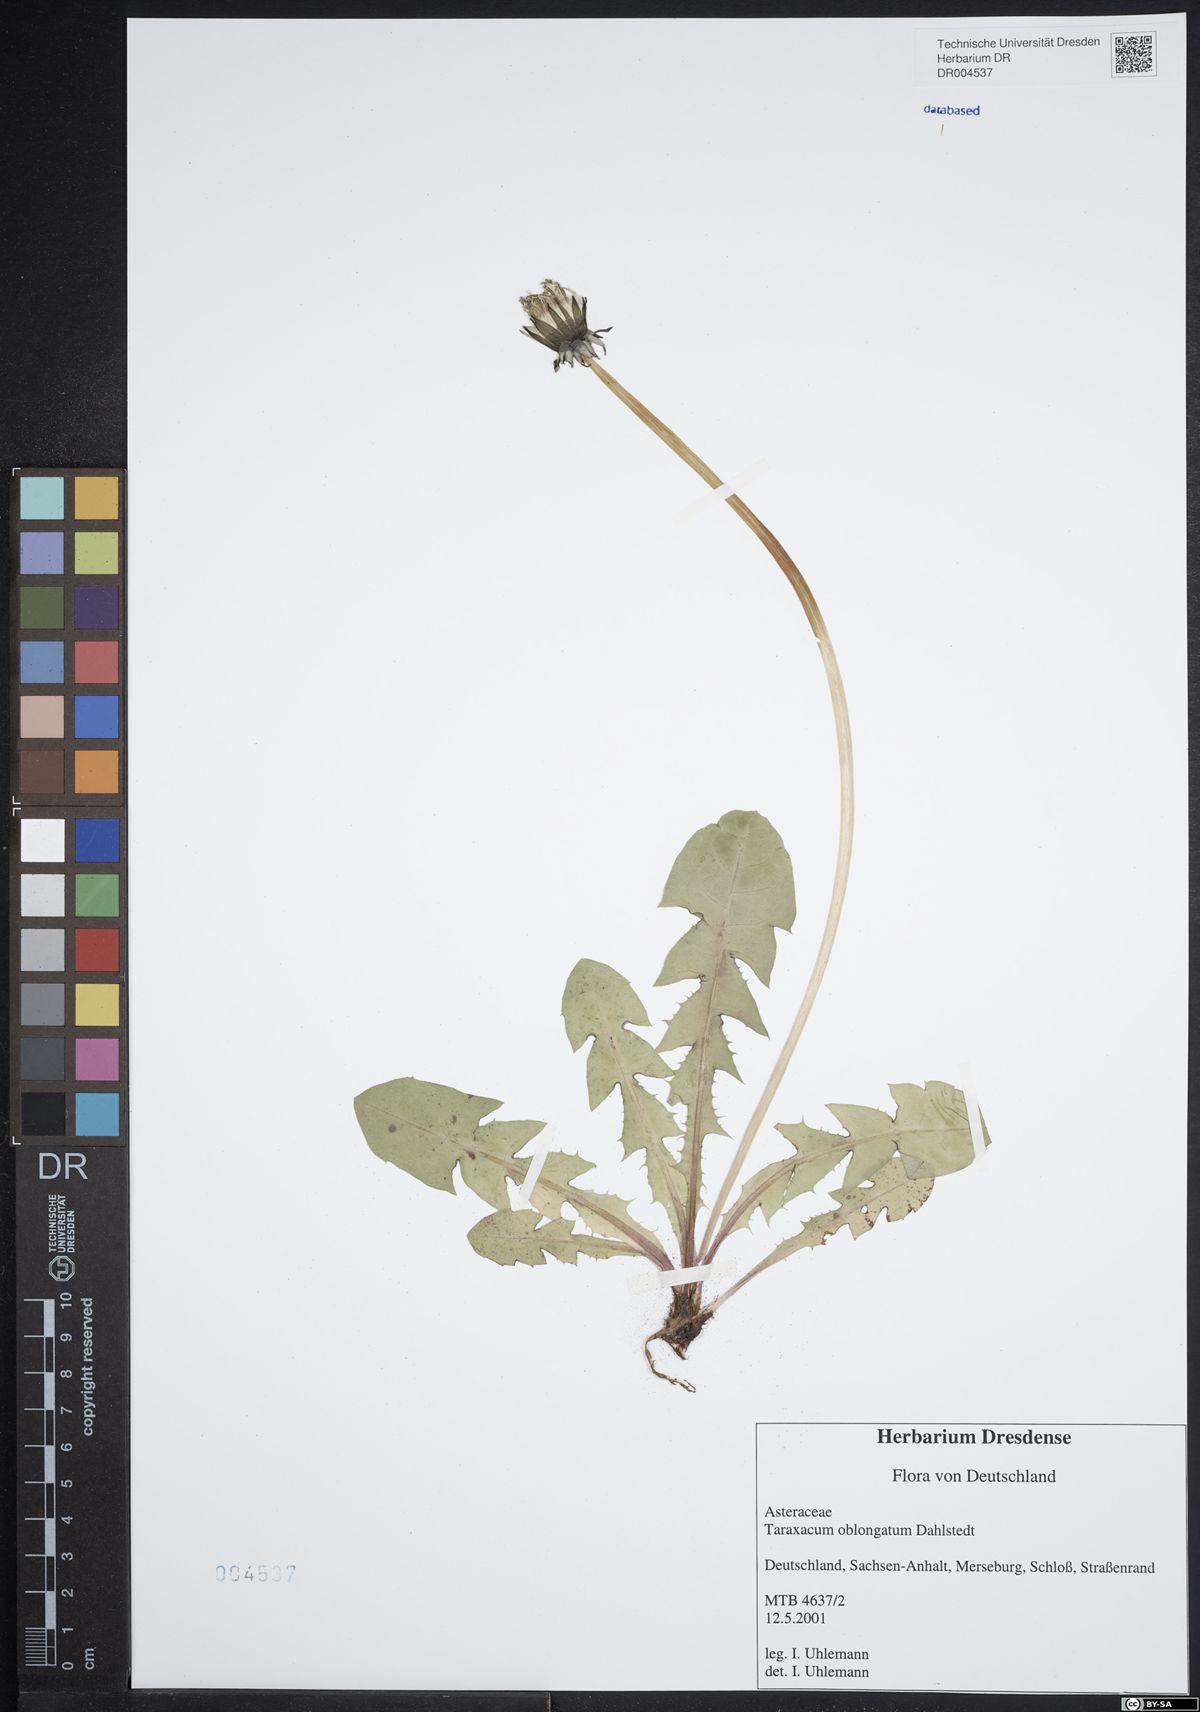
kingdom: Plantae
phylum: Tracheophyta
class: Magnoliopsida
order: Asterales
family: Asteraceae
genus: Taraxacum
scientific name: Taraxacum oblongatum
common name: Oblong-leaved dandelion
